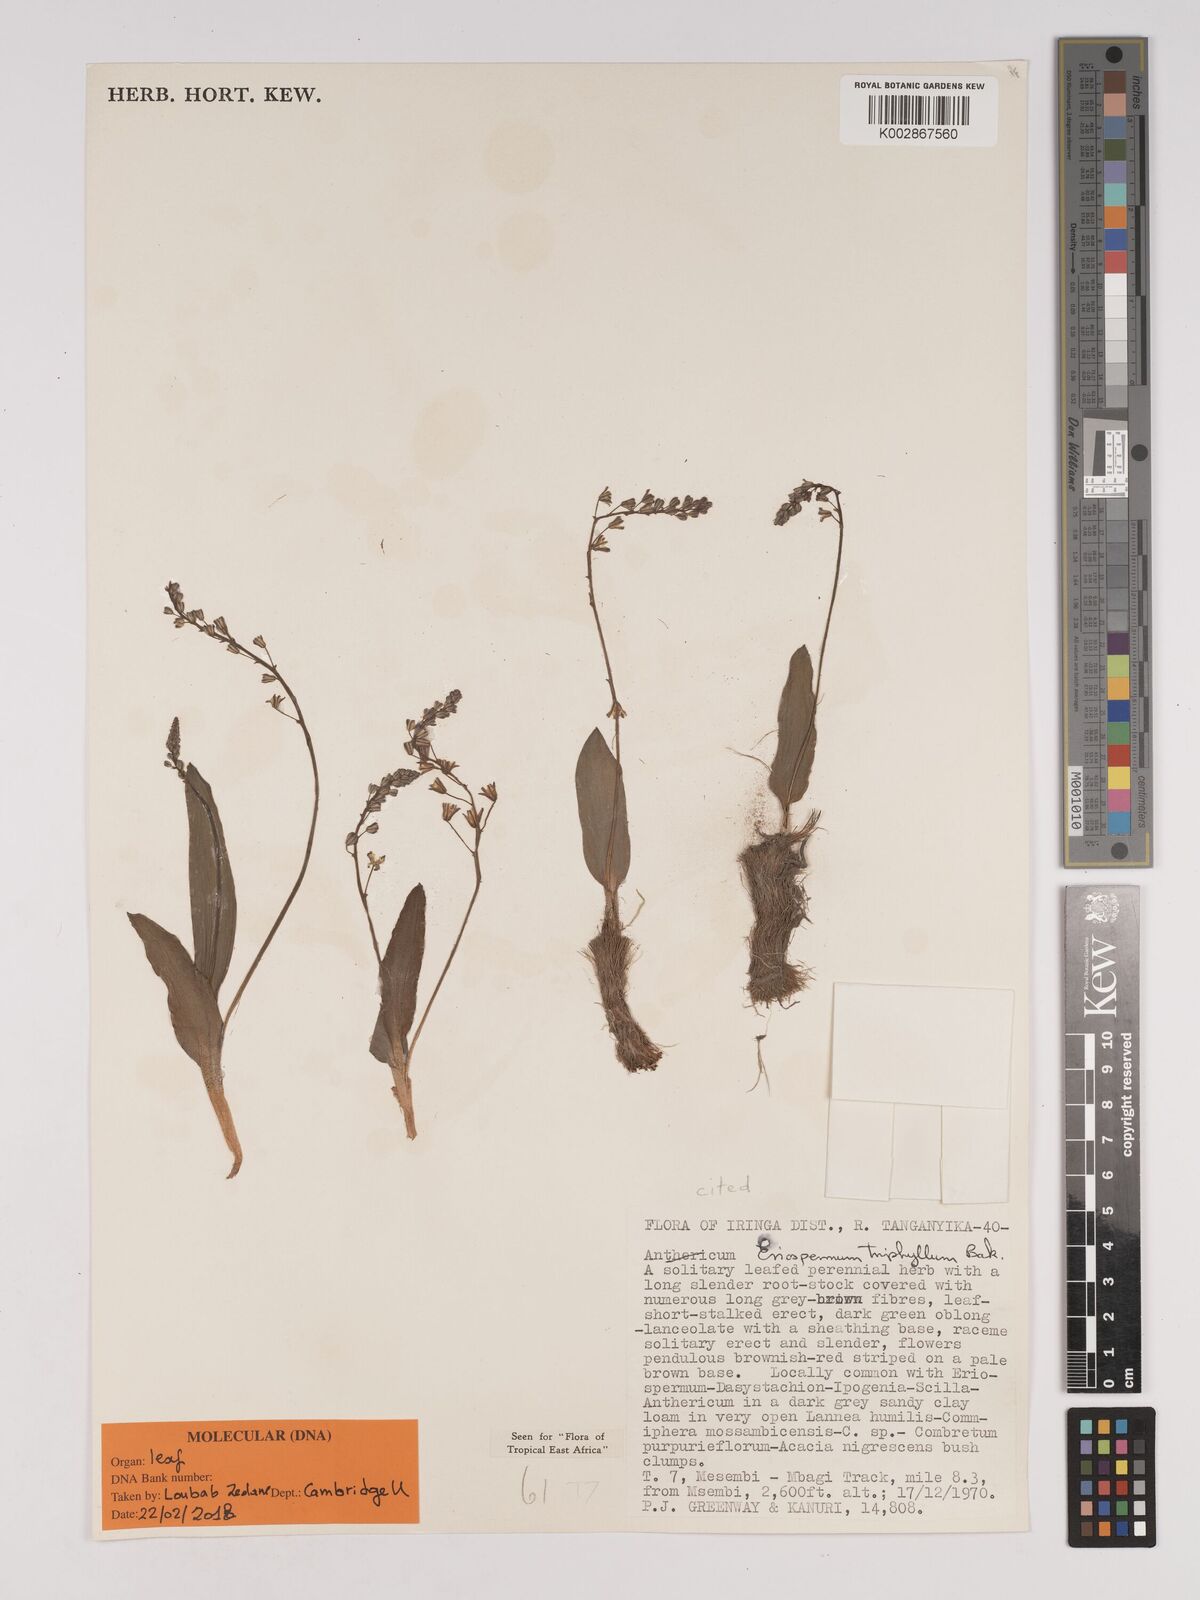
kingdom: Plantae
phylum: Tracheophyta
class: Liliopsida
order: Asparagales
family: Asparagaceae
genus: Eriospermum
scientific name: Eriospermum triphyllum
